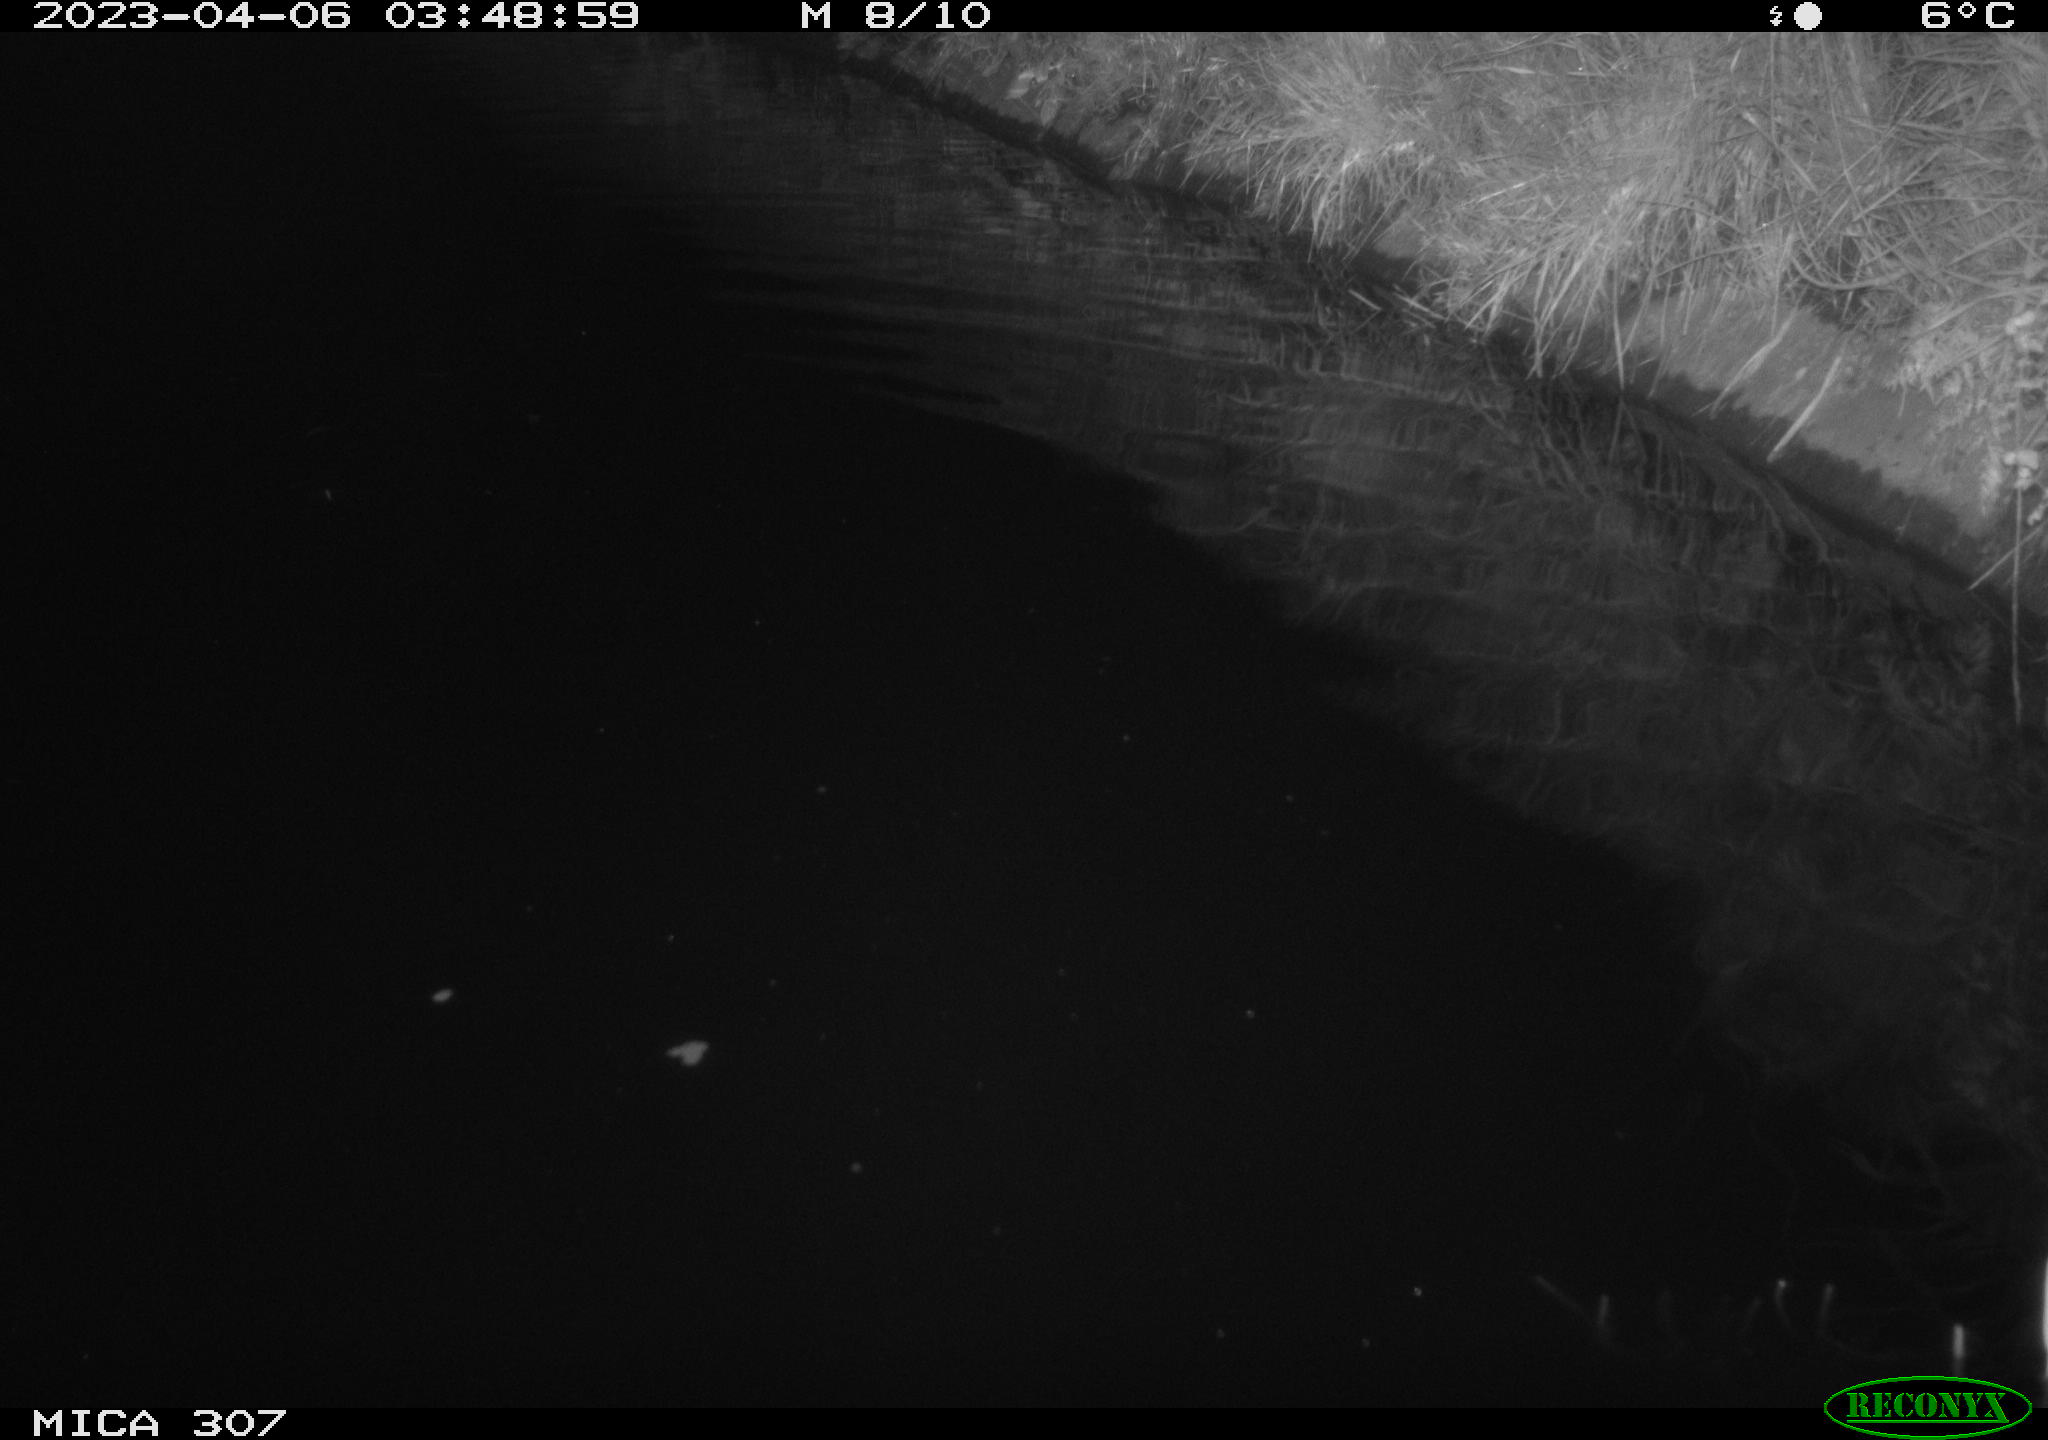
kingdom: Animalia
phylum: Chordata
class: Aves
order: Anseriformes
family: Anatidae
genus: Anas
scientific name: Anas
